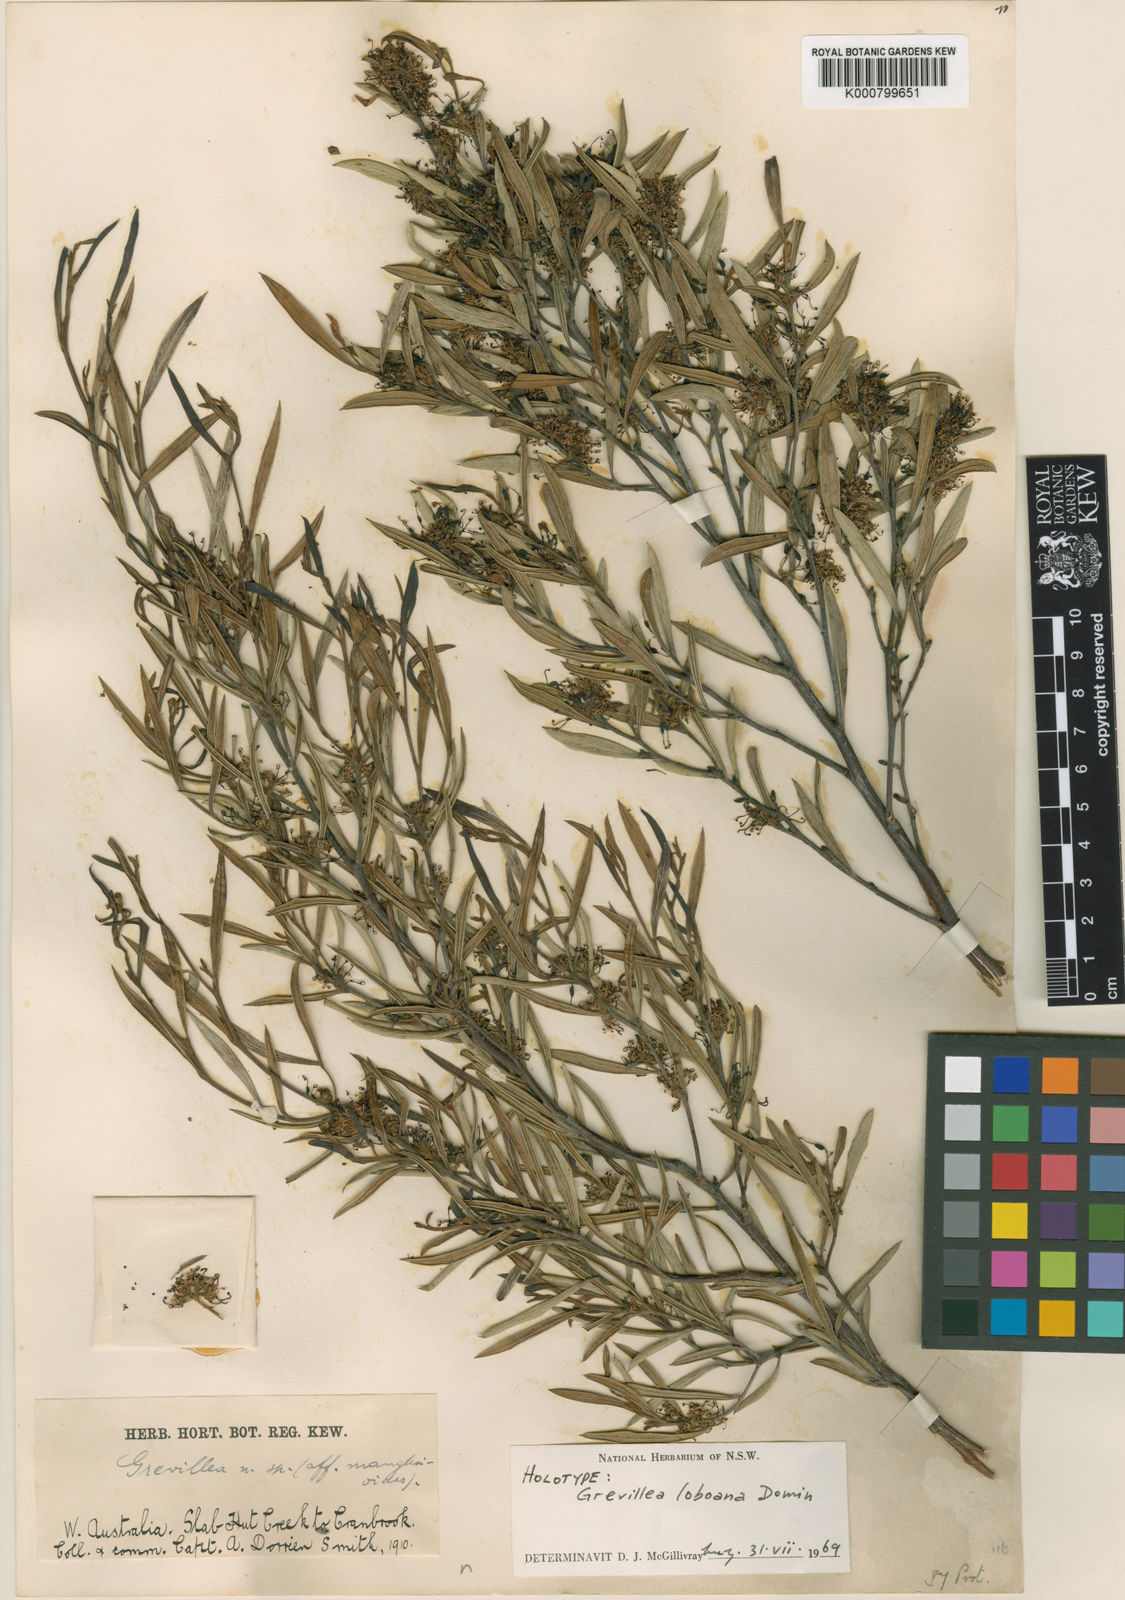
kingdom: Plantae
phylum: Tracheophyta
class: Magnoliopsida
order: Proteales
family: Proteaceae
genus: Grevillea
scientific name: Grevillea diversifolia
